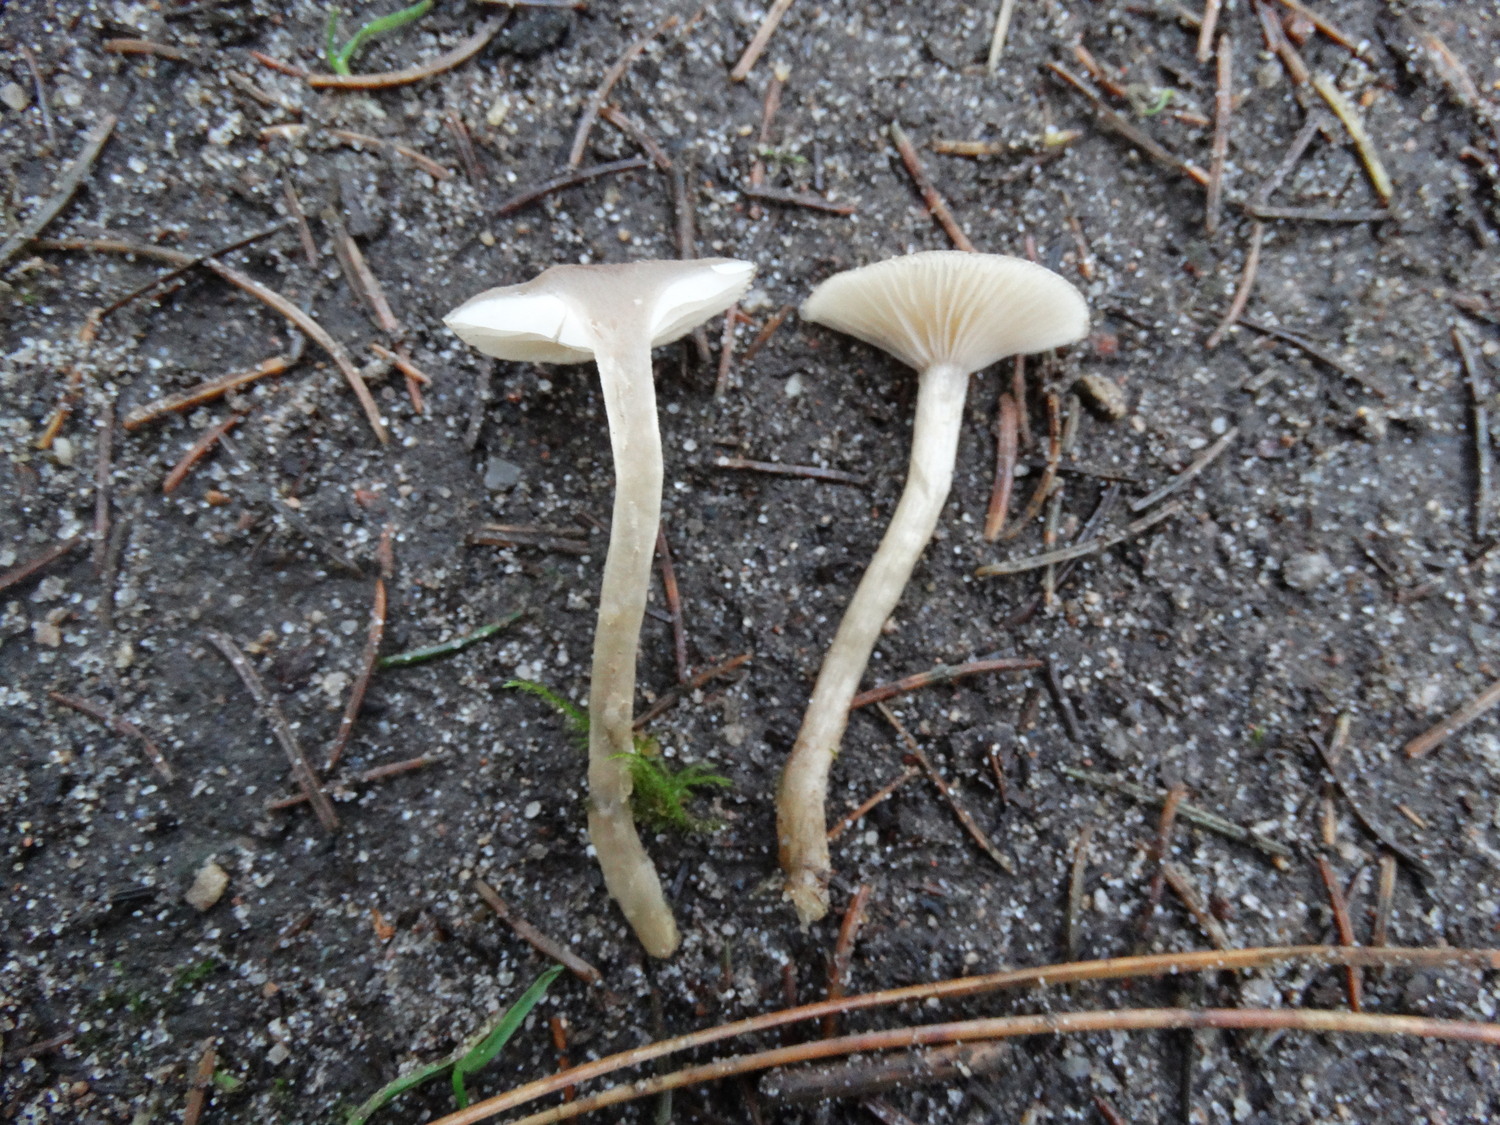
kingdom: Fungi
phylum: Basidiomycota
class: Agaricomycetes
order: Agaricales
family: Tricholomataceae
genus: Clitocybe
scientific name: Clitocybe fragrans
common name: vellugtende tragthat
